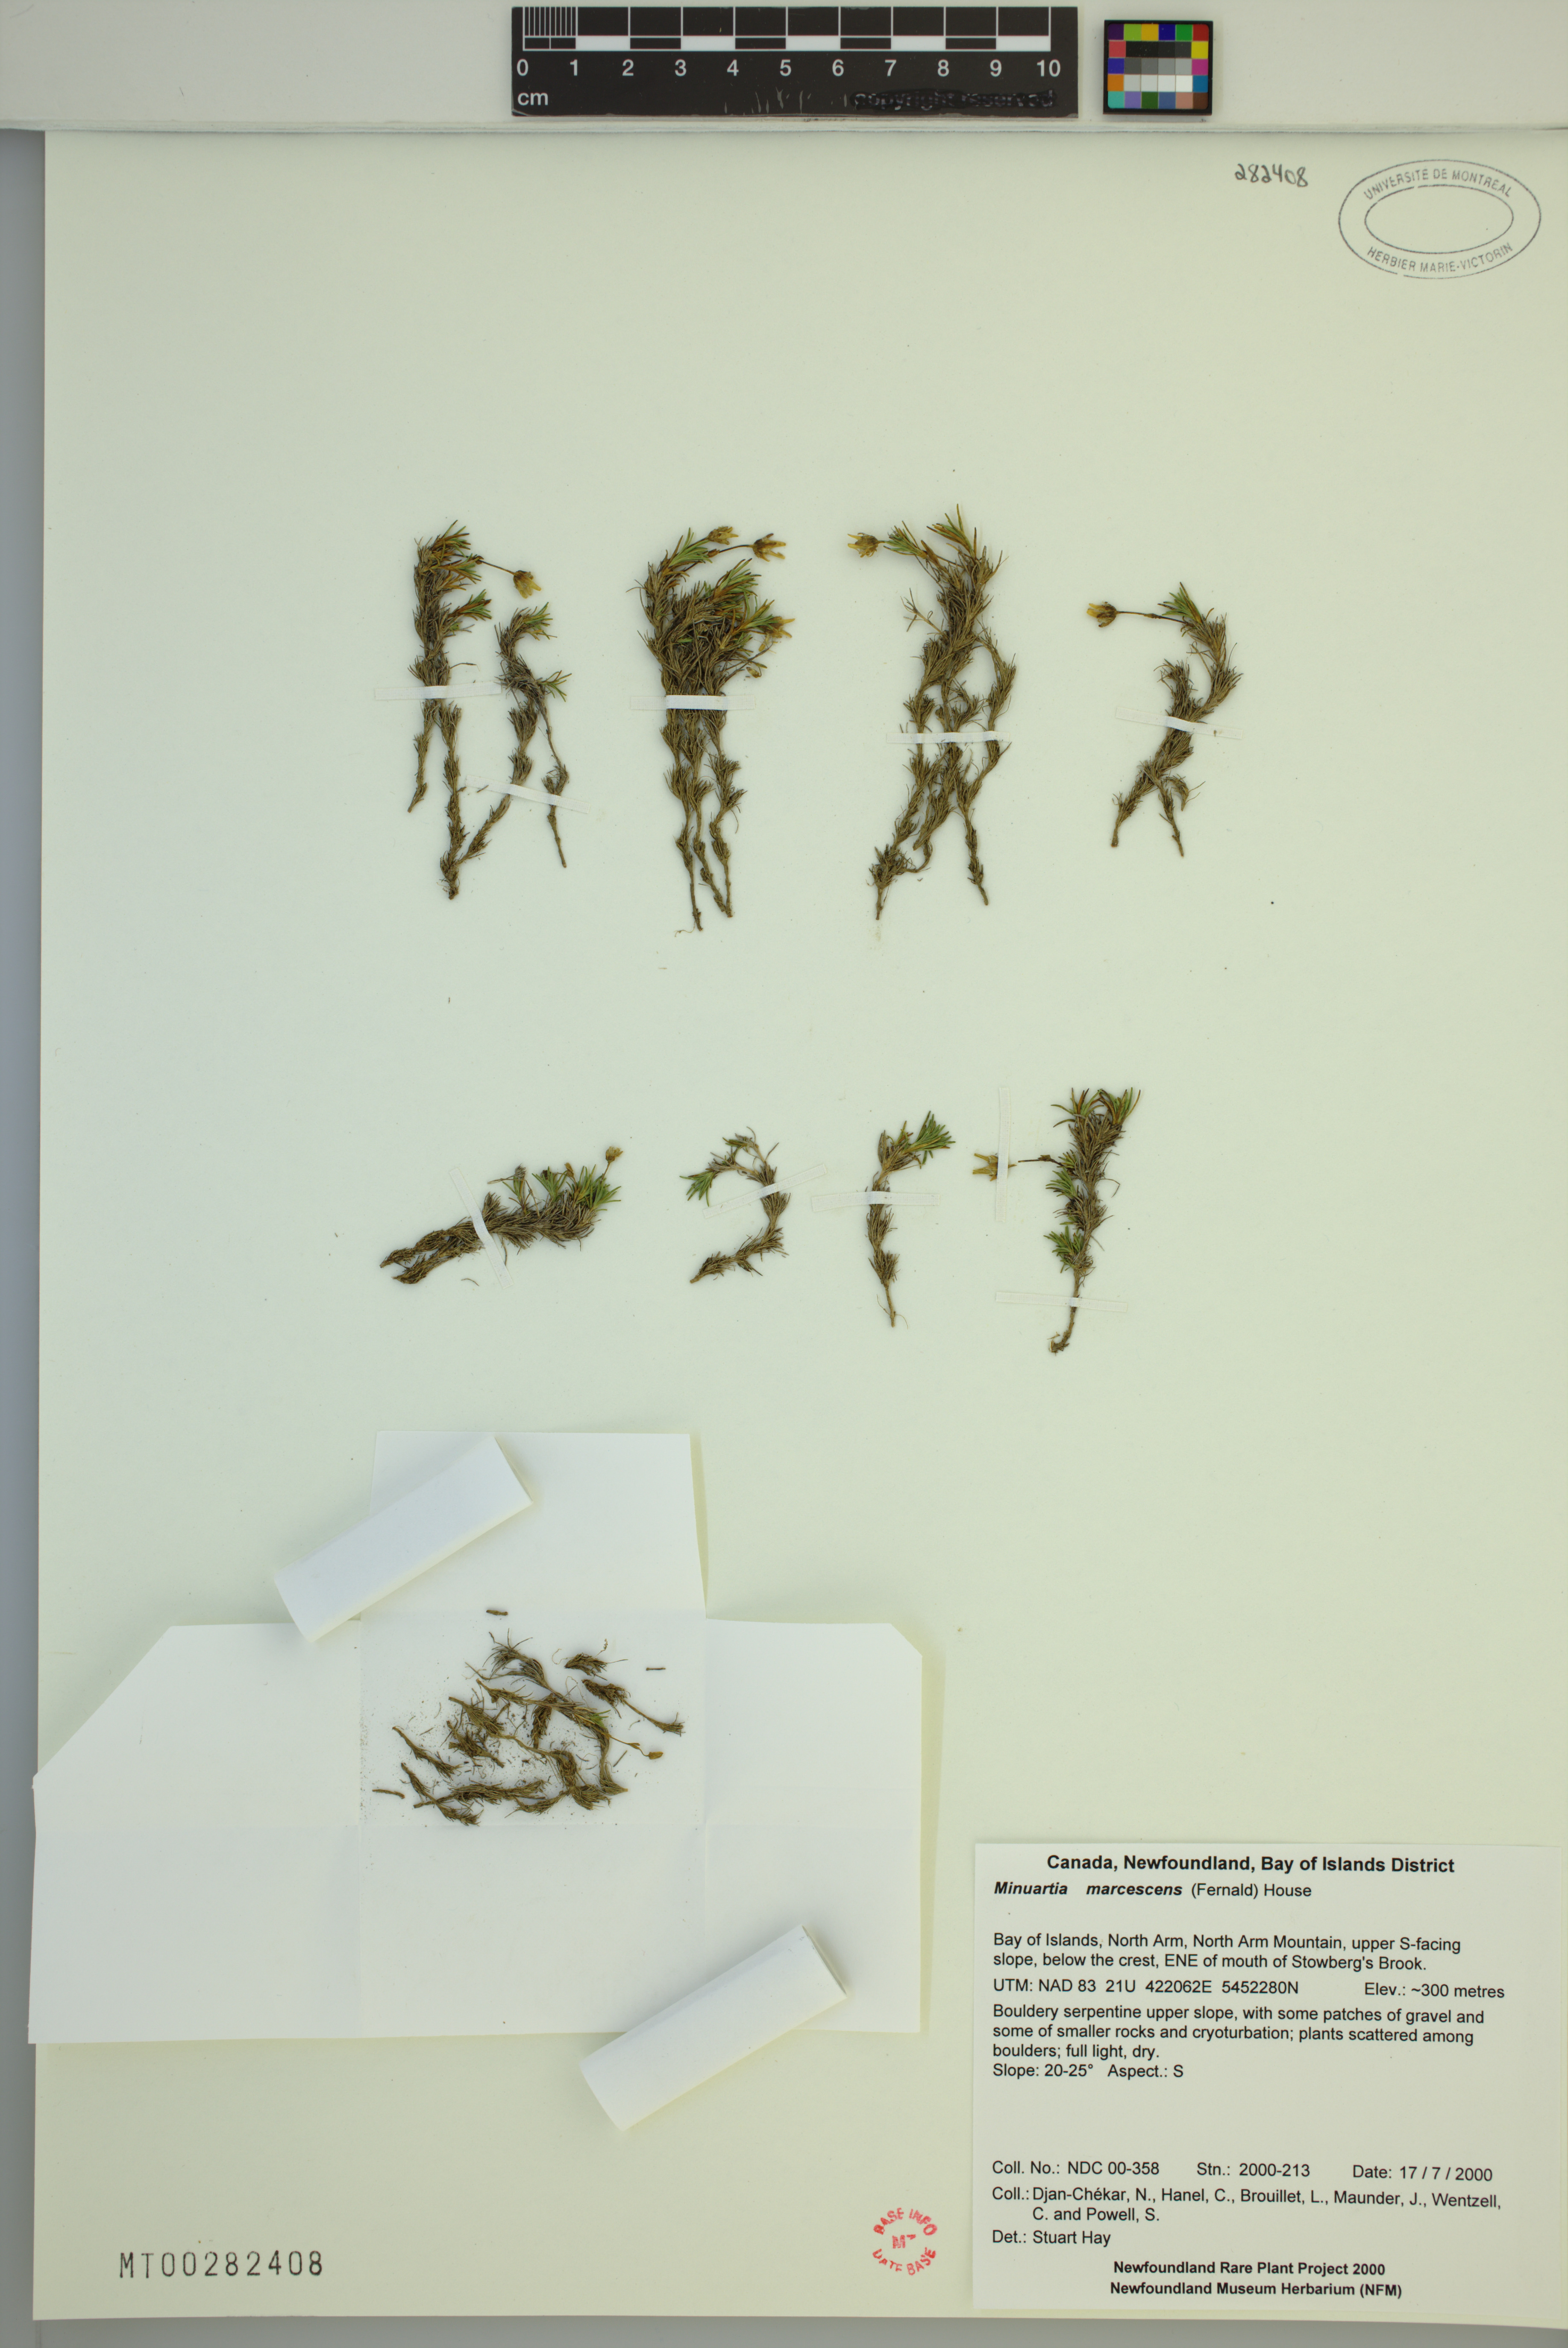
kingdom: Plantae
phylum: Tracheophyta
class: Magnoliopsida
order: Caryophyllales
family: Caryophyllaceae
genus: Cherleria
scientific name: Cherleria marcescens
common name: Dry-leaved sandwort
